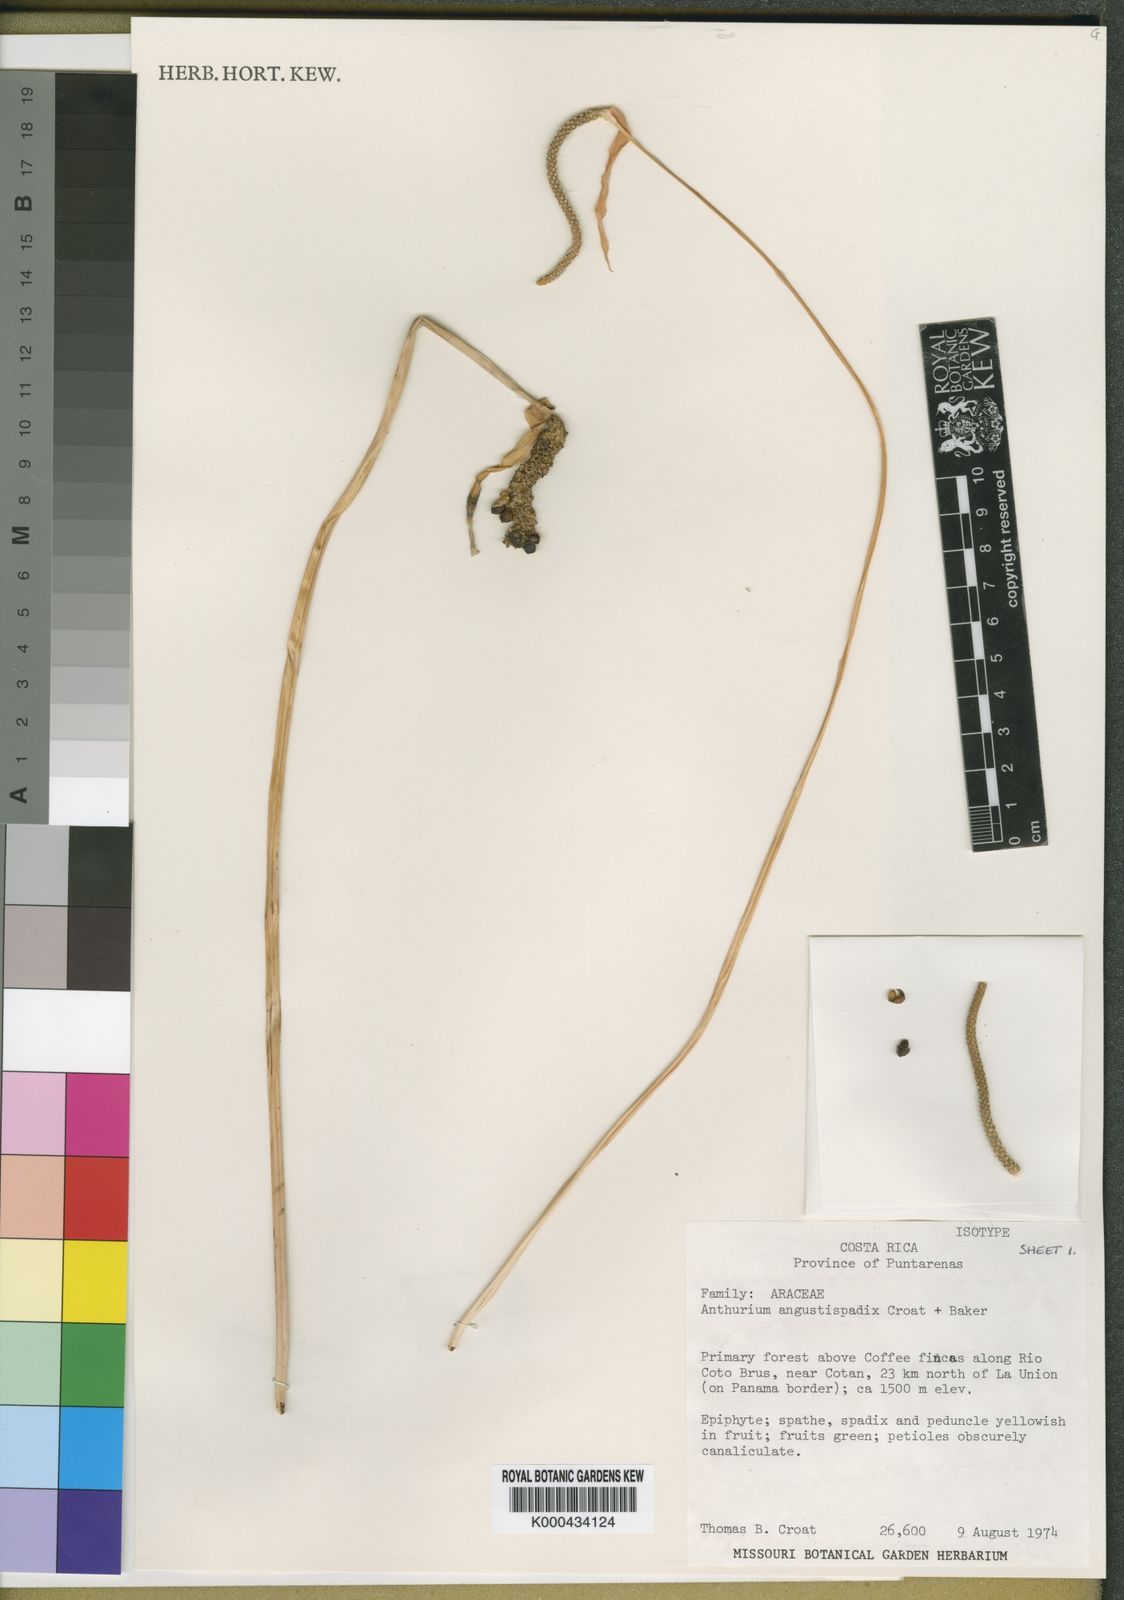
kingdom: Plantae
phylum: Tracheophyta
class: Liliopsida
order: Alismatales
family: Araceae
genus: Anthurium
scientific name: Anthurium angustispadix
